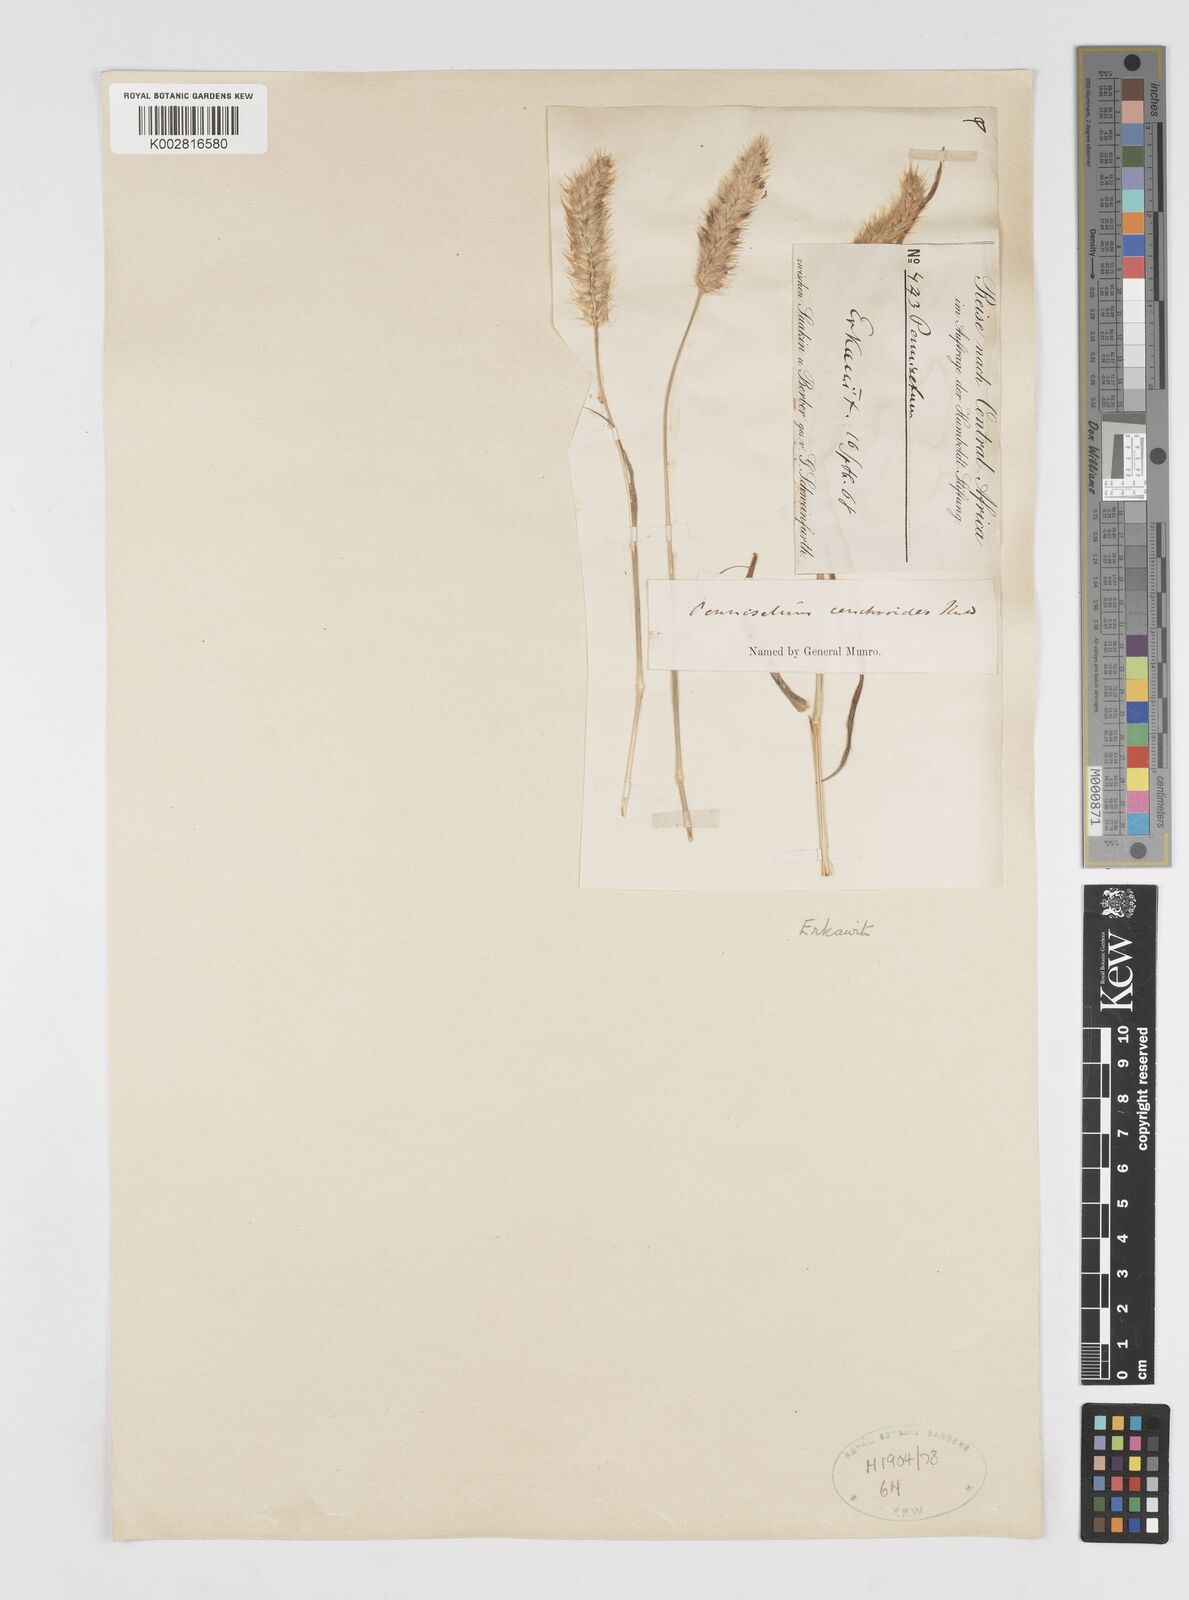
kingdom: Plantae
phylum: Tracheophyta
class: Liliopsida
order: Poales
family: Poaceae
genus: Cenchrus
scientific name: Cenchrus ciliaris
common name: Buffelgrass
